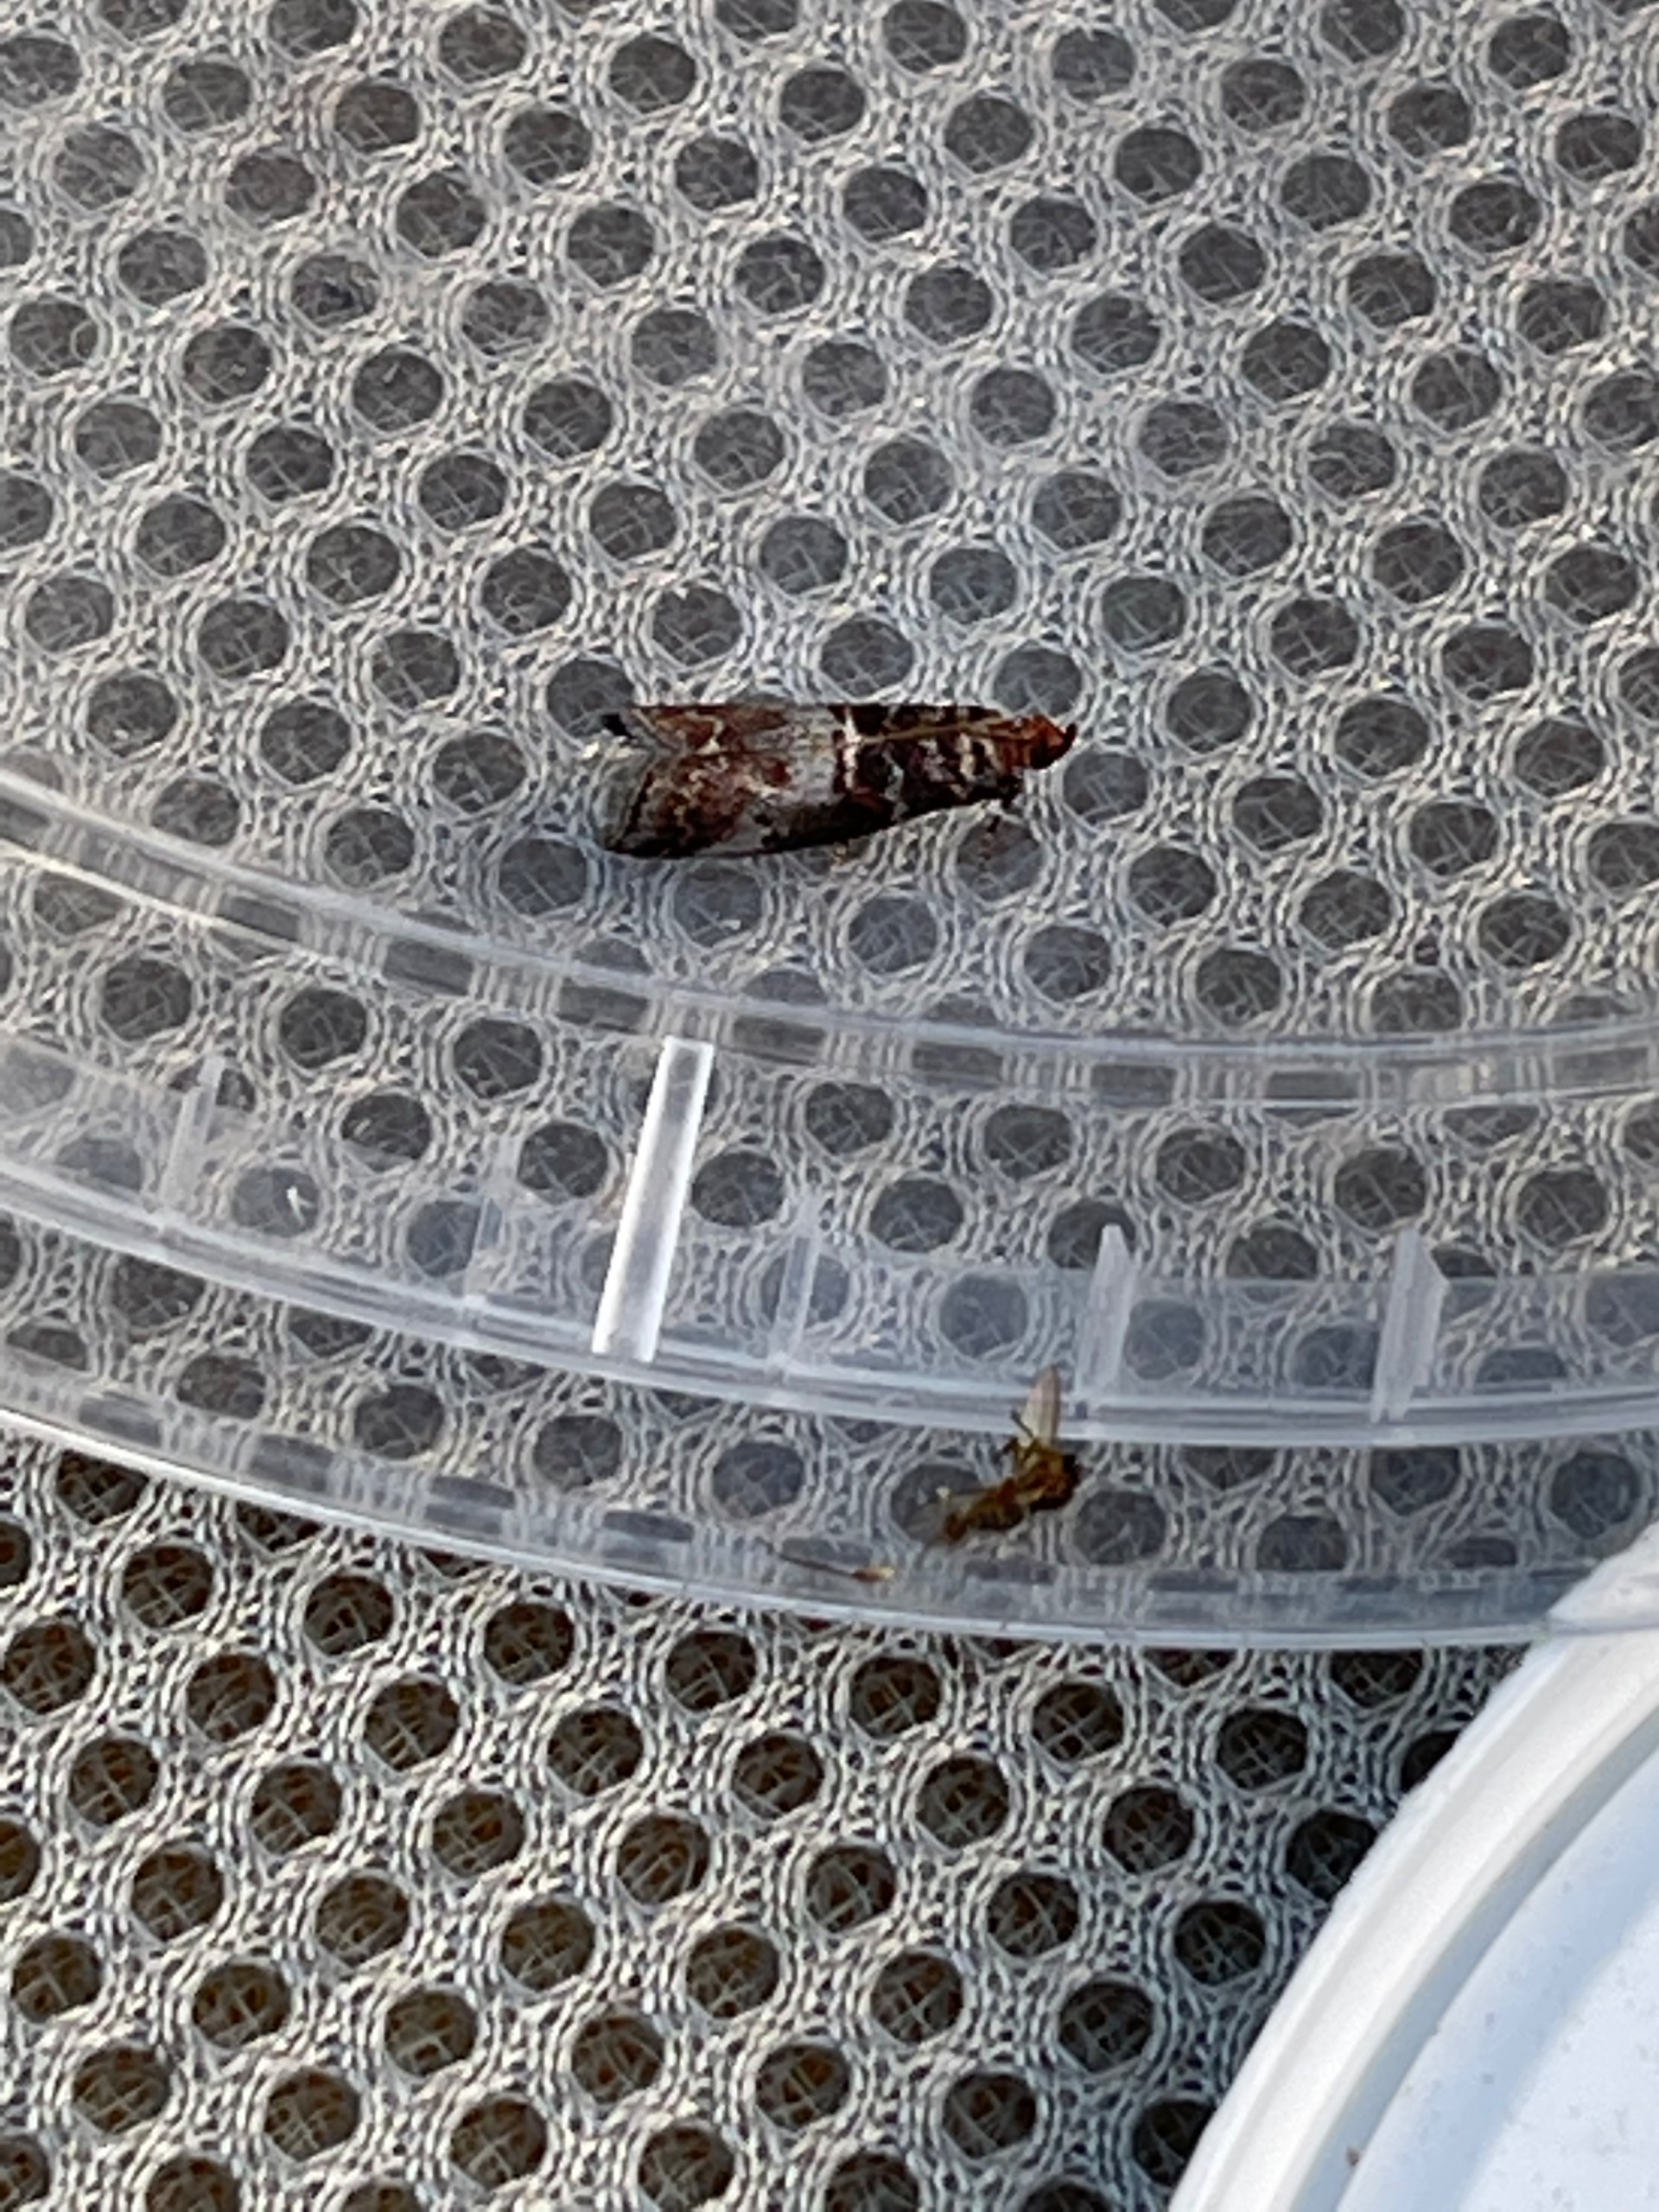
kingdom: Animalia
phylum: Arthropoda
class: Insecta
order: Lepidoptera
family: Pyralidae
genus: Acrobasis
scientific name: Acrobasis advenella
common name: Rønnehalvmøl
